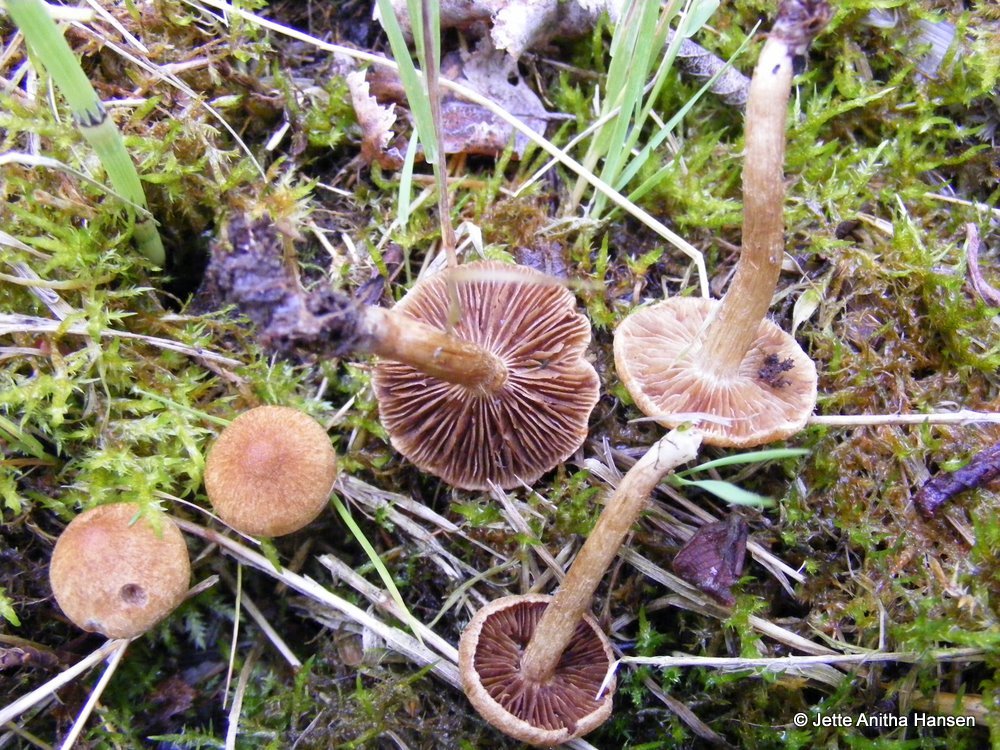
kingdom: Fungi
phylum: Basidiomycota
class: Agaricomycetes
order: Agaricales
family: Inocybaceae
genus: Inocybe
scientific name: Inocybe
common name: trævlhat
